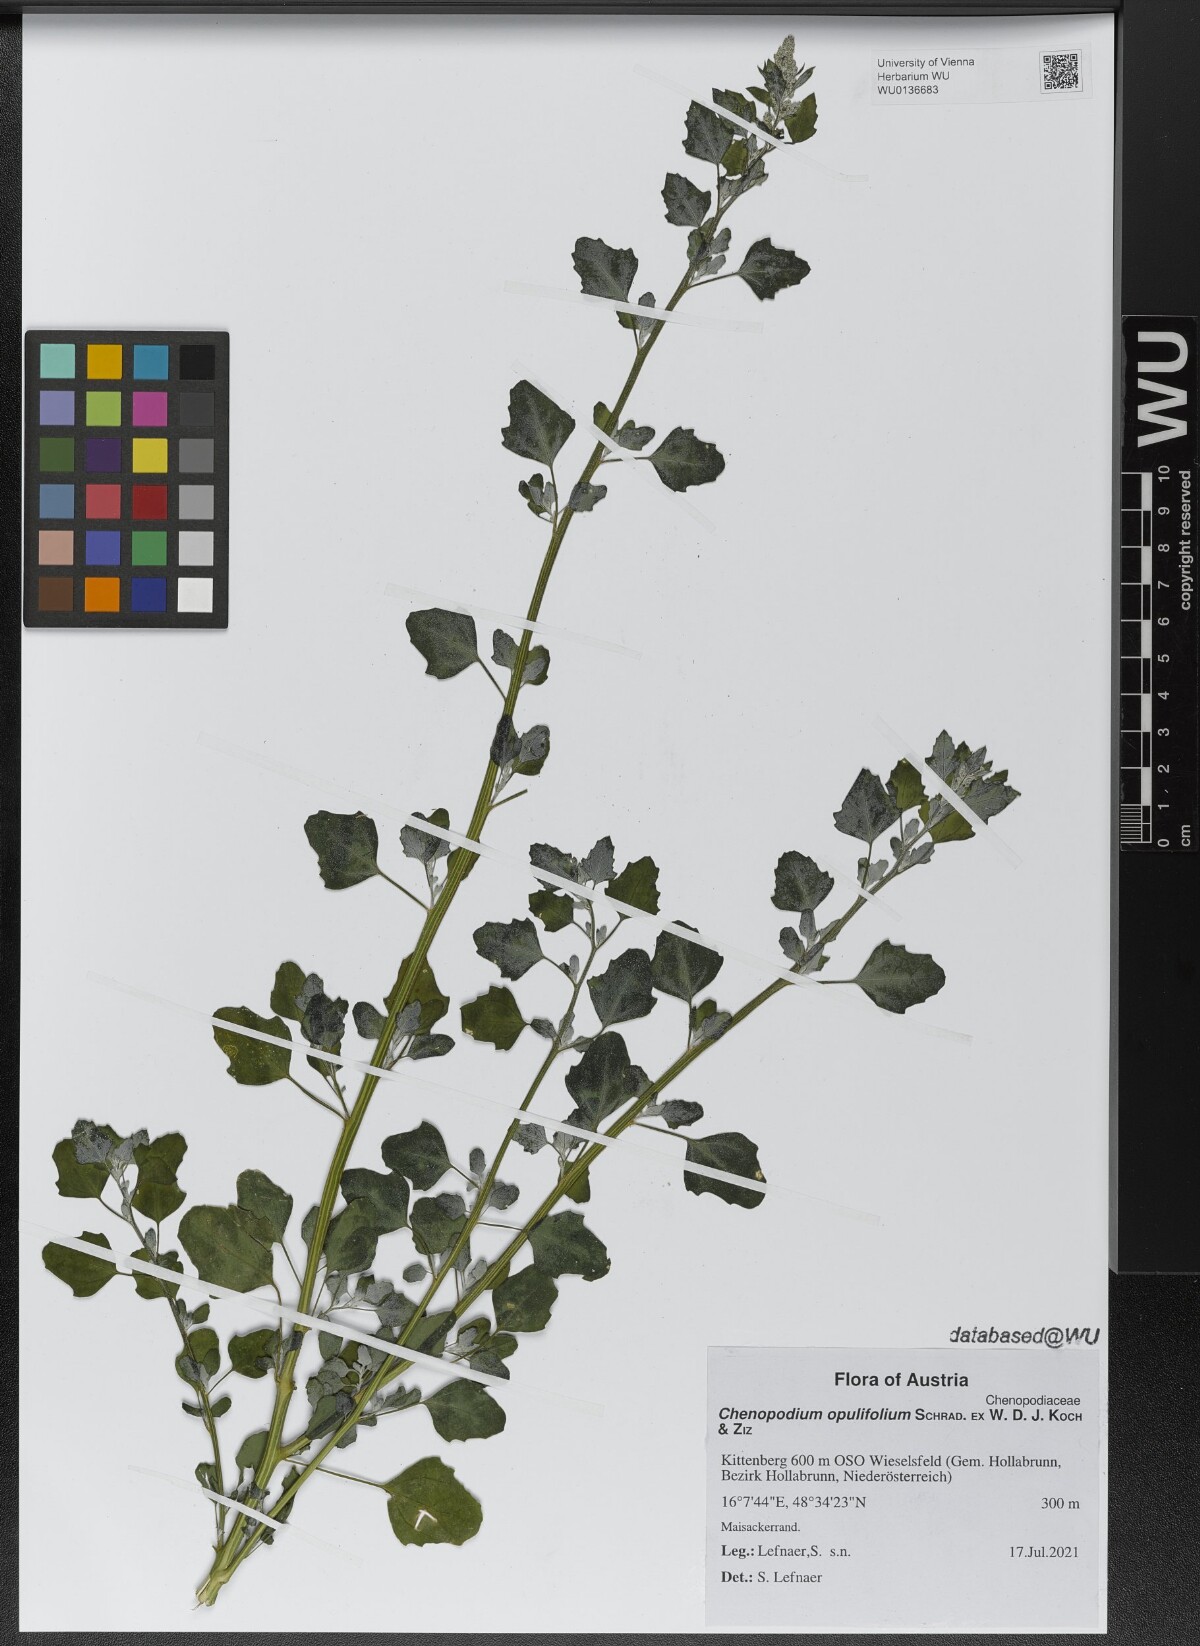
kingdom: Plantae
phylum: Tracheophyta
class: Magnoliopsida
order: Caryophyllales
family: Amaranthaceae
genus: Chenopodium
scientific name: Chenopodium opulifolium
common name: Grey goosefoot
